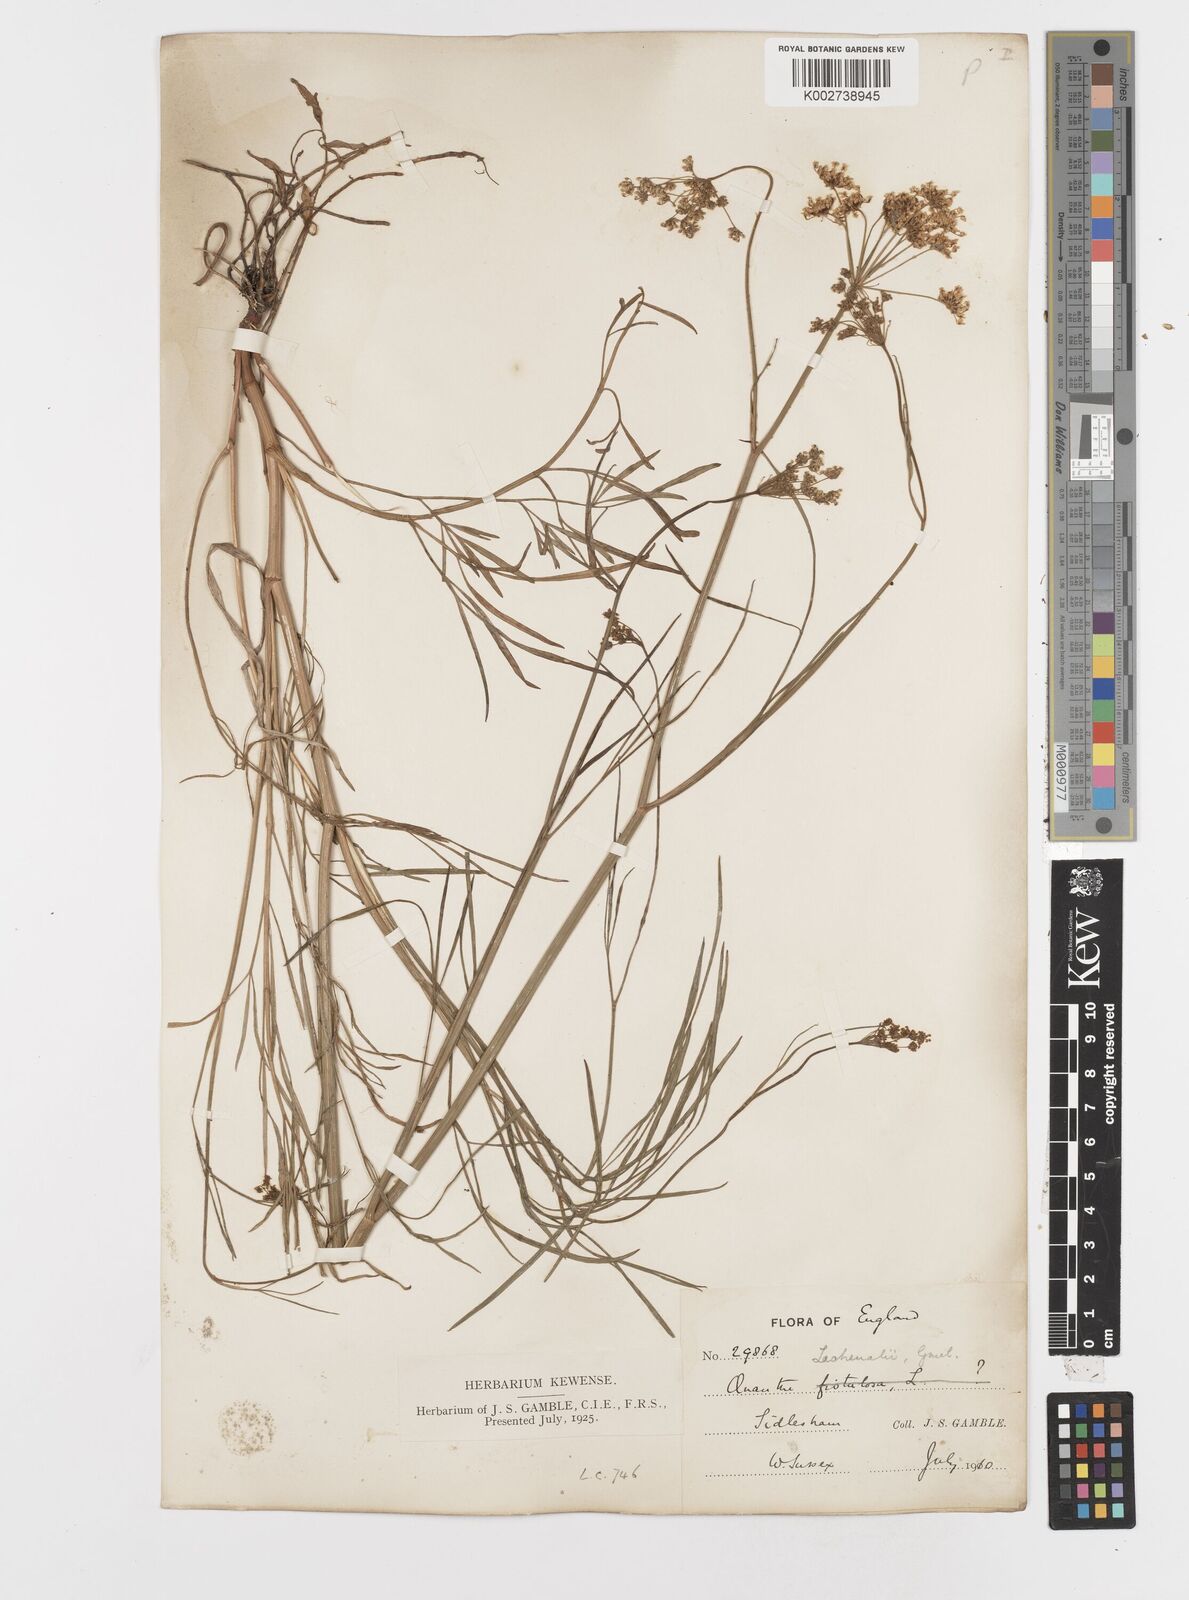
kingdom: Plantae
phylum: Tracheophyta
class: Magnoliopsida
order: Apiales
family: Apiaceae
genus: Oenanthe
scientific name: Oenanthe lachenalii
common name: Parsley water-dropwort
